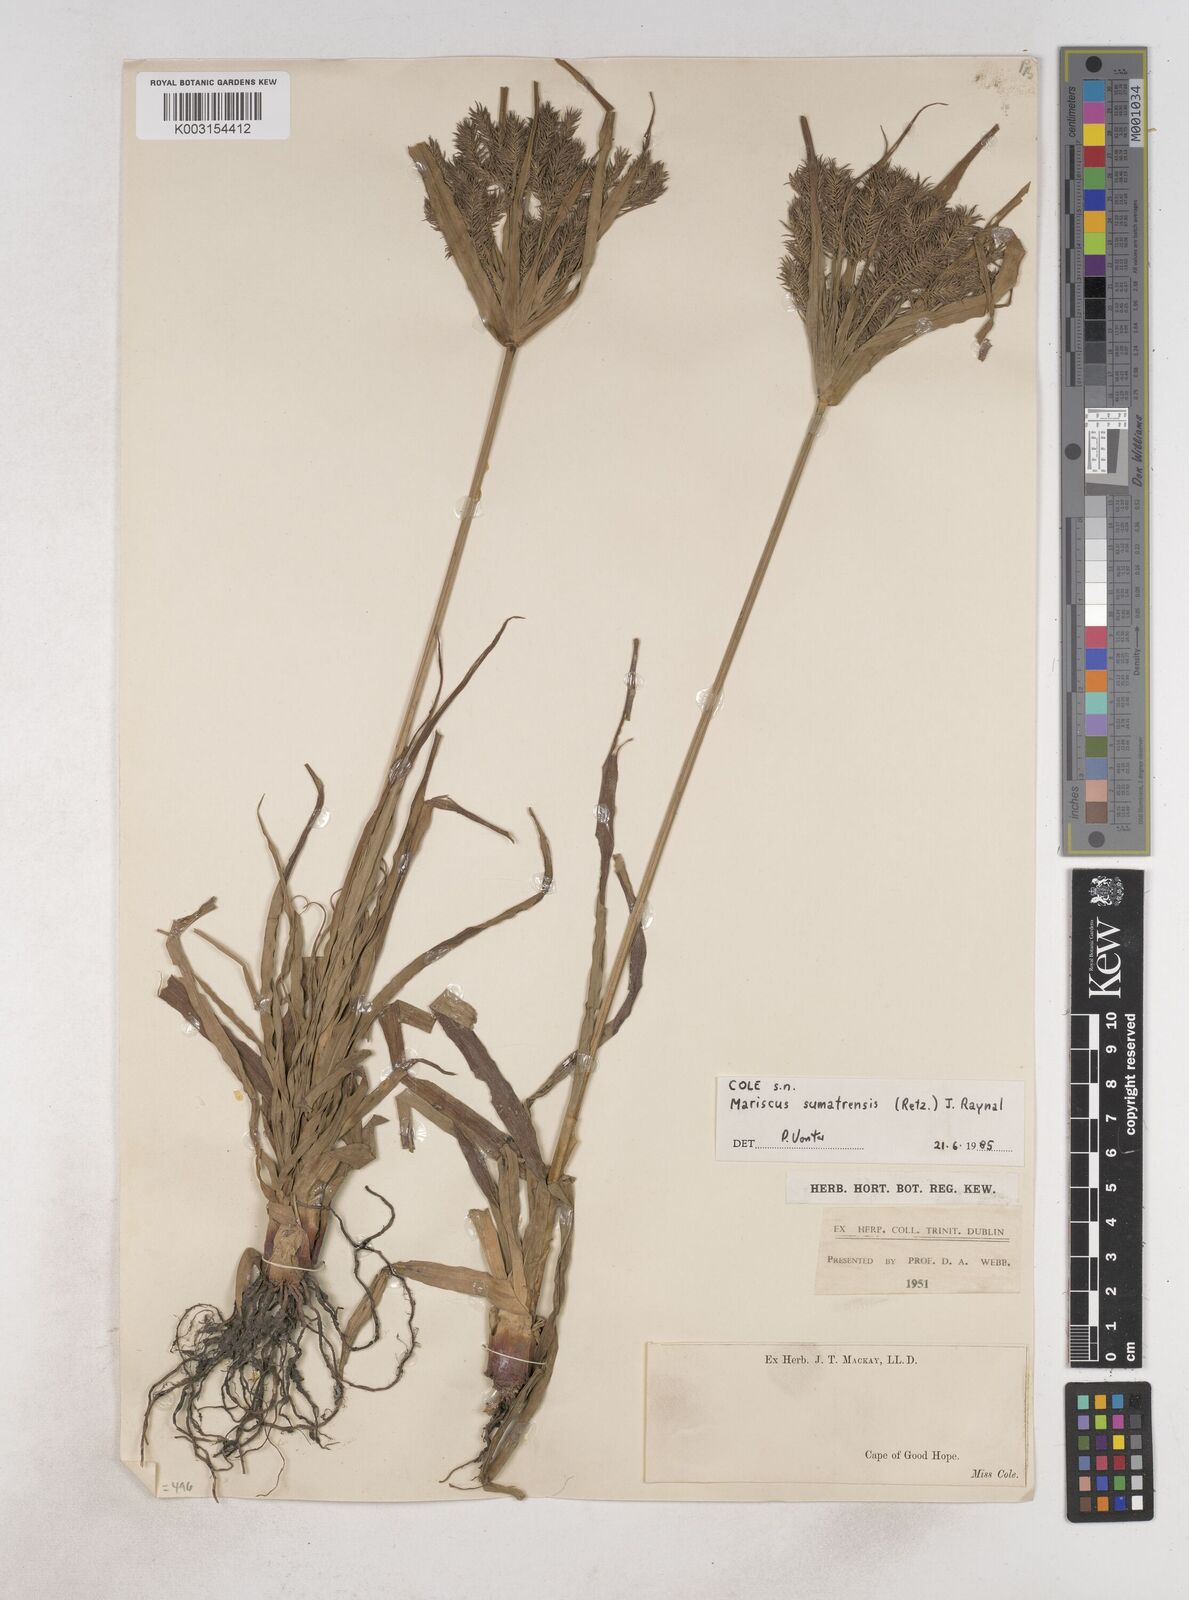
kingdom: Plantae
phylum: Tracheophyta
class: Liliopsida
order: Poales
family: Cyperaceae
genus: Cyperus
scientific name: Cyperus cyperoides
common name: Pacific island flat sedge
